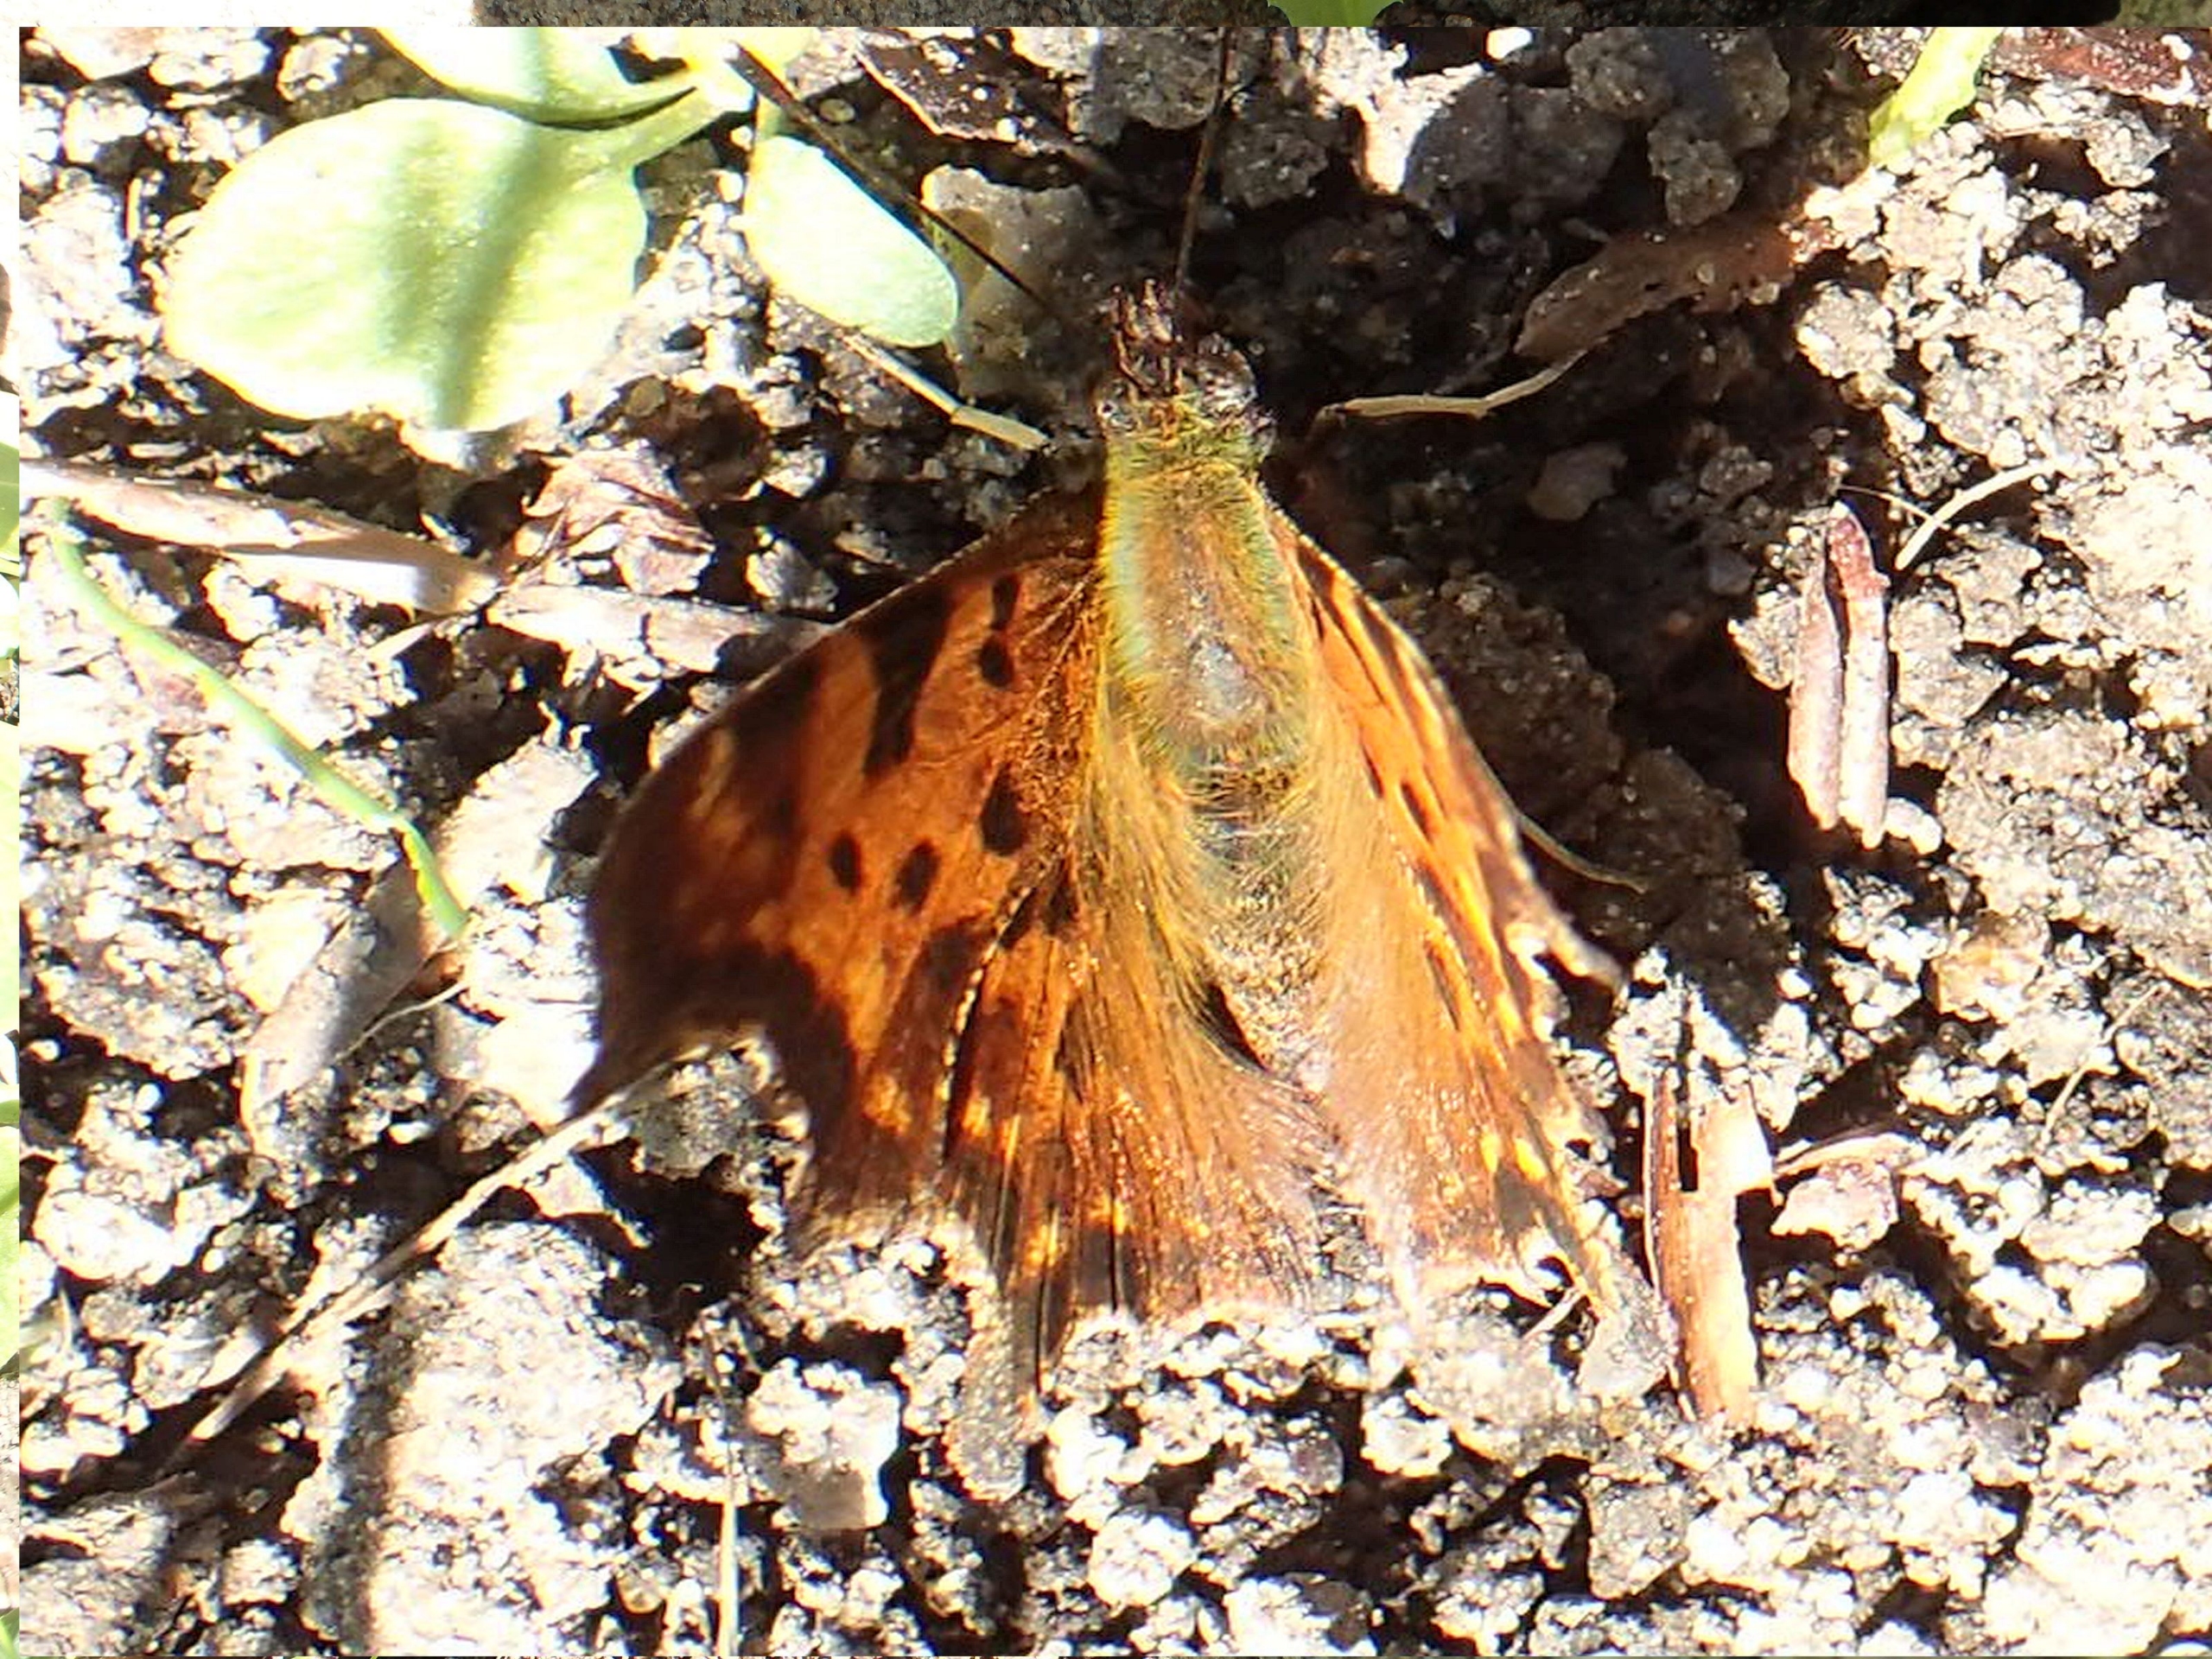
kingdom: Animalia
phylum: Arthropoda
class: Insecta
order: Lepidoptera
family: Nymphalidae
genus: Polygonia
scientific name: Polygonia c-album
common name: Det hvide C
